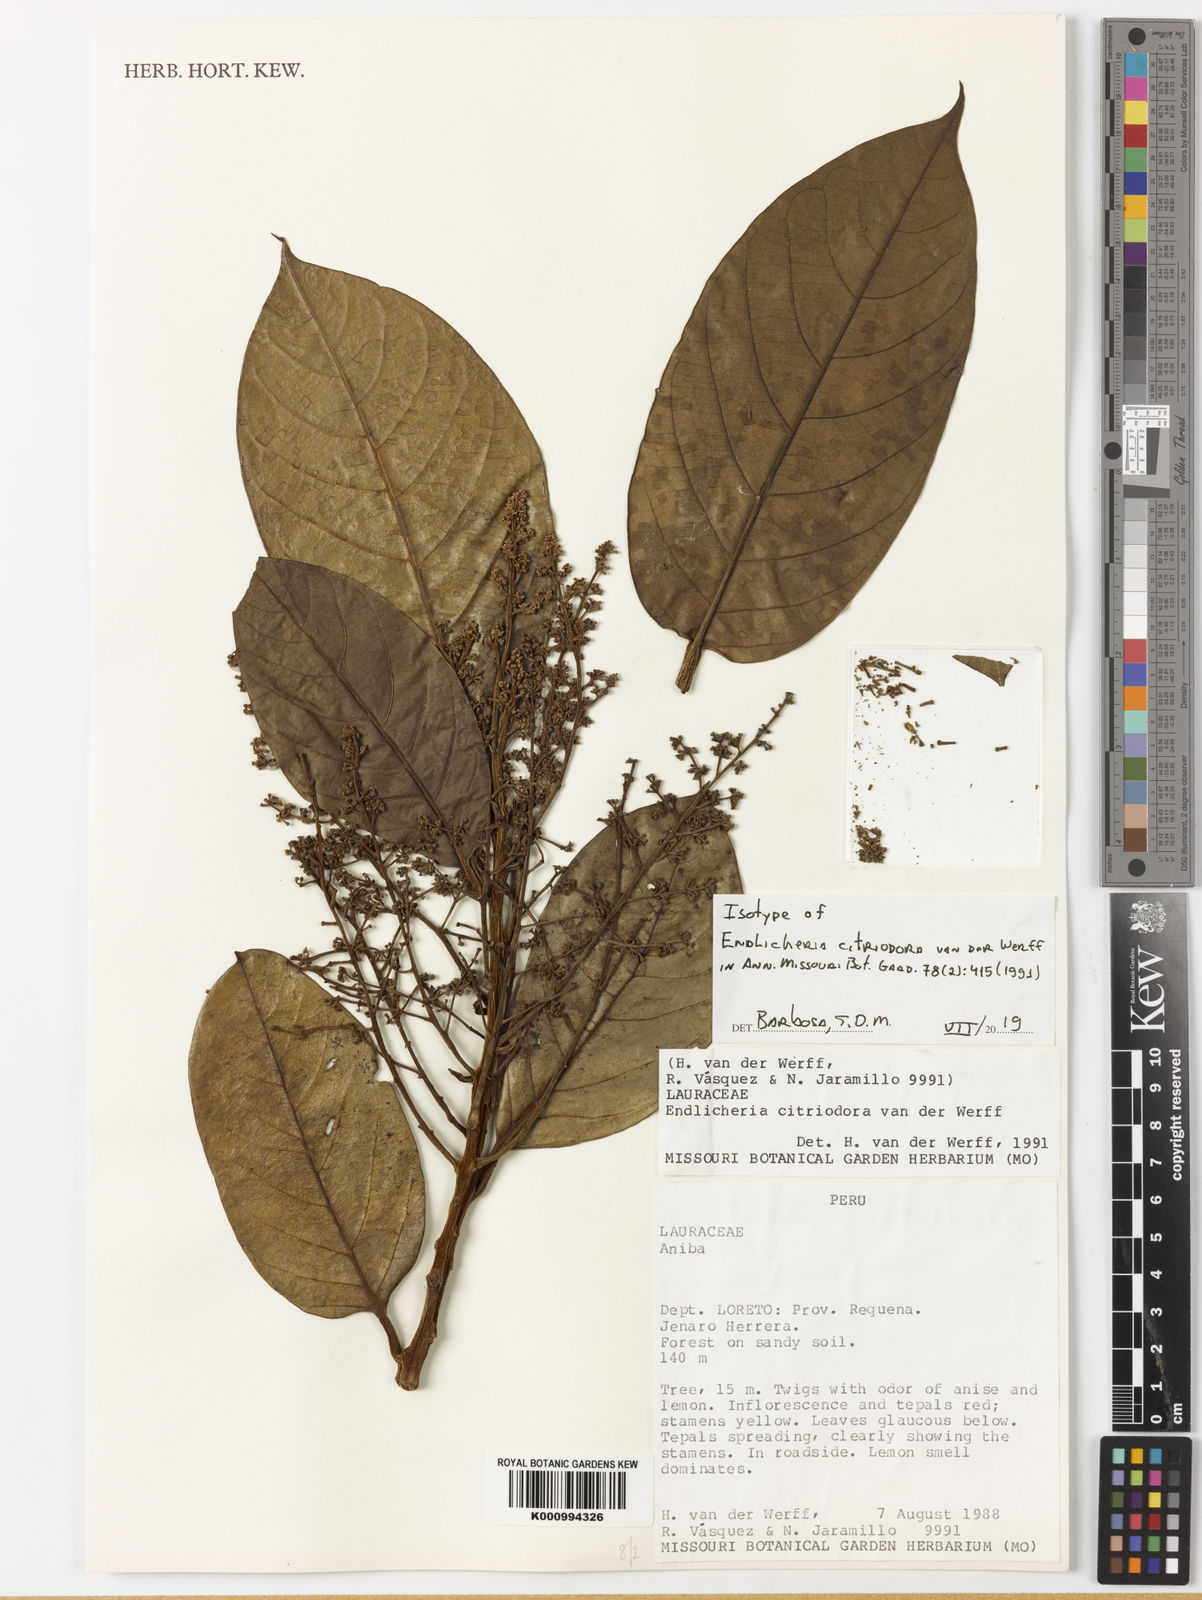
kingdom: Plantae
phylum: Tracheophyta
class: Magnoliopsida
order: Laurales
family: Lauraceae
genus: Aniba
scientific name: Aniba
